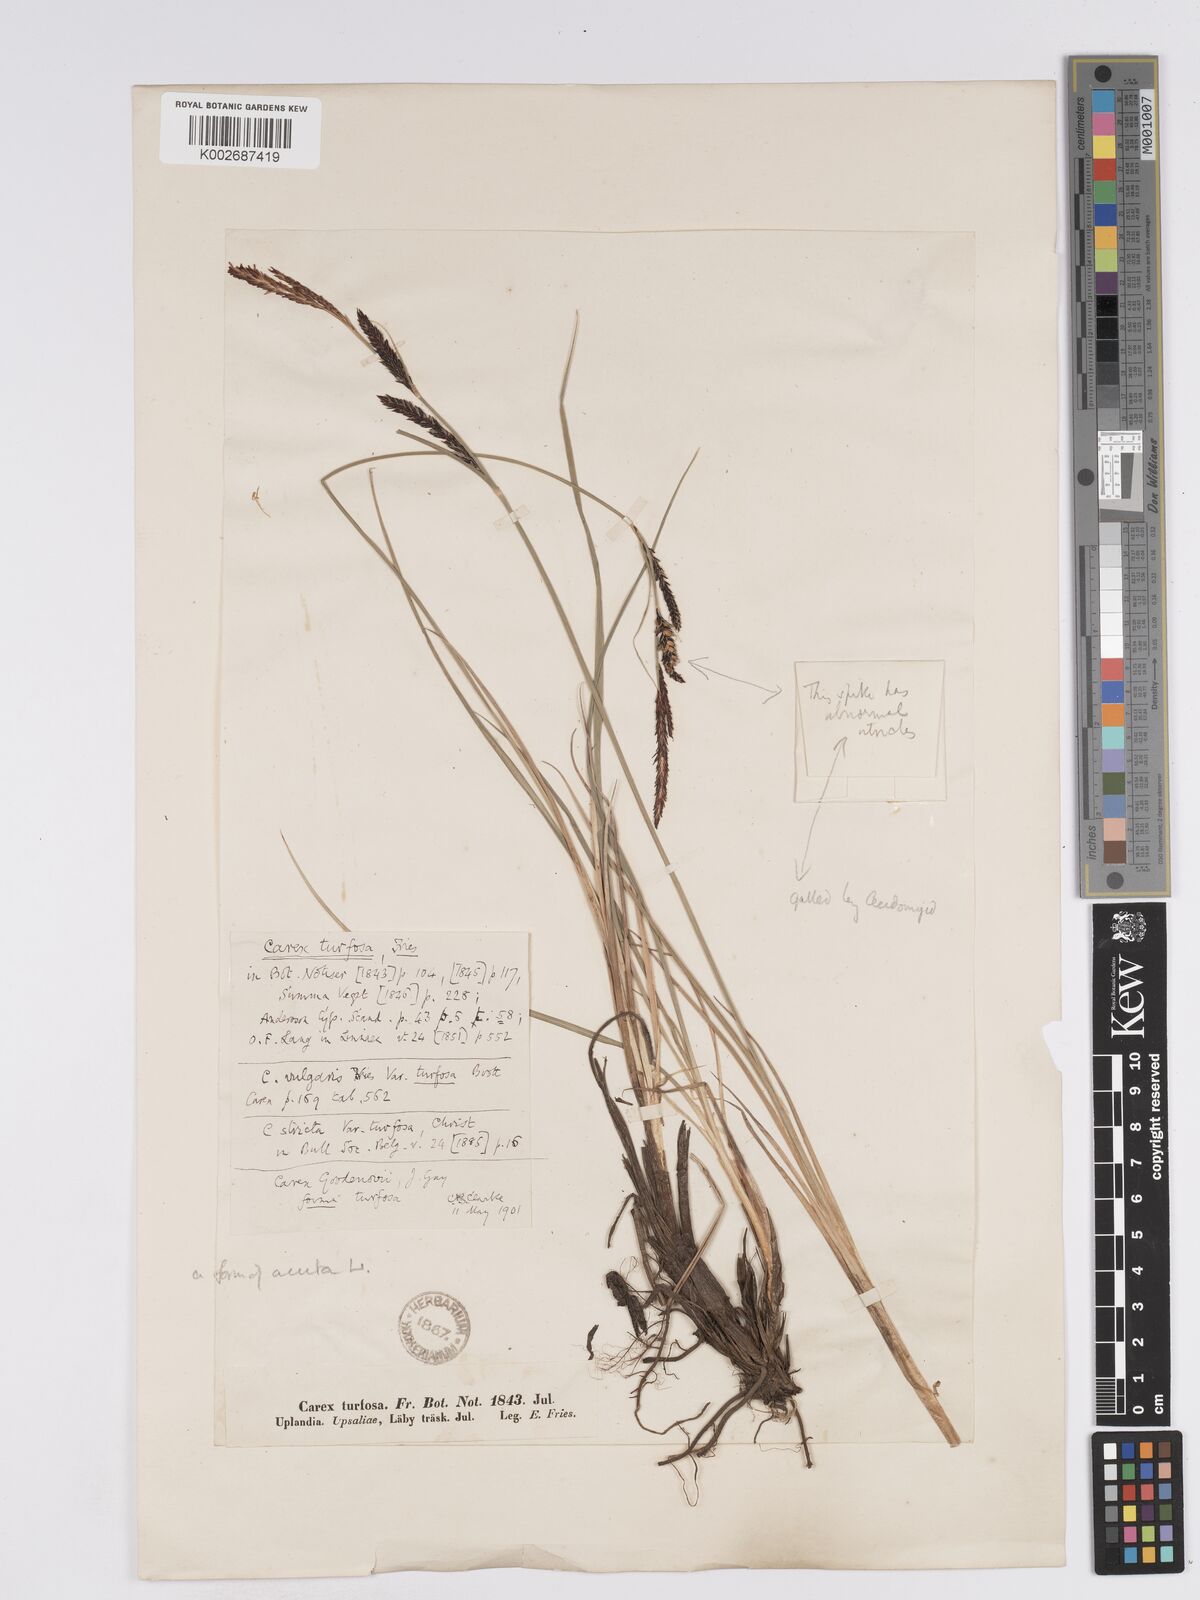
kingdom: Plantae
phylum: Tracheophyta
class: Liliopsida
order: Poales
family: Cyperaceae
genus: Carex
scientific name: Carex nigra
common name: Common sedge
